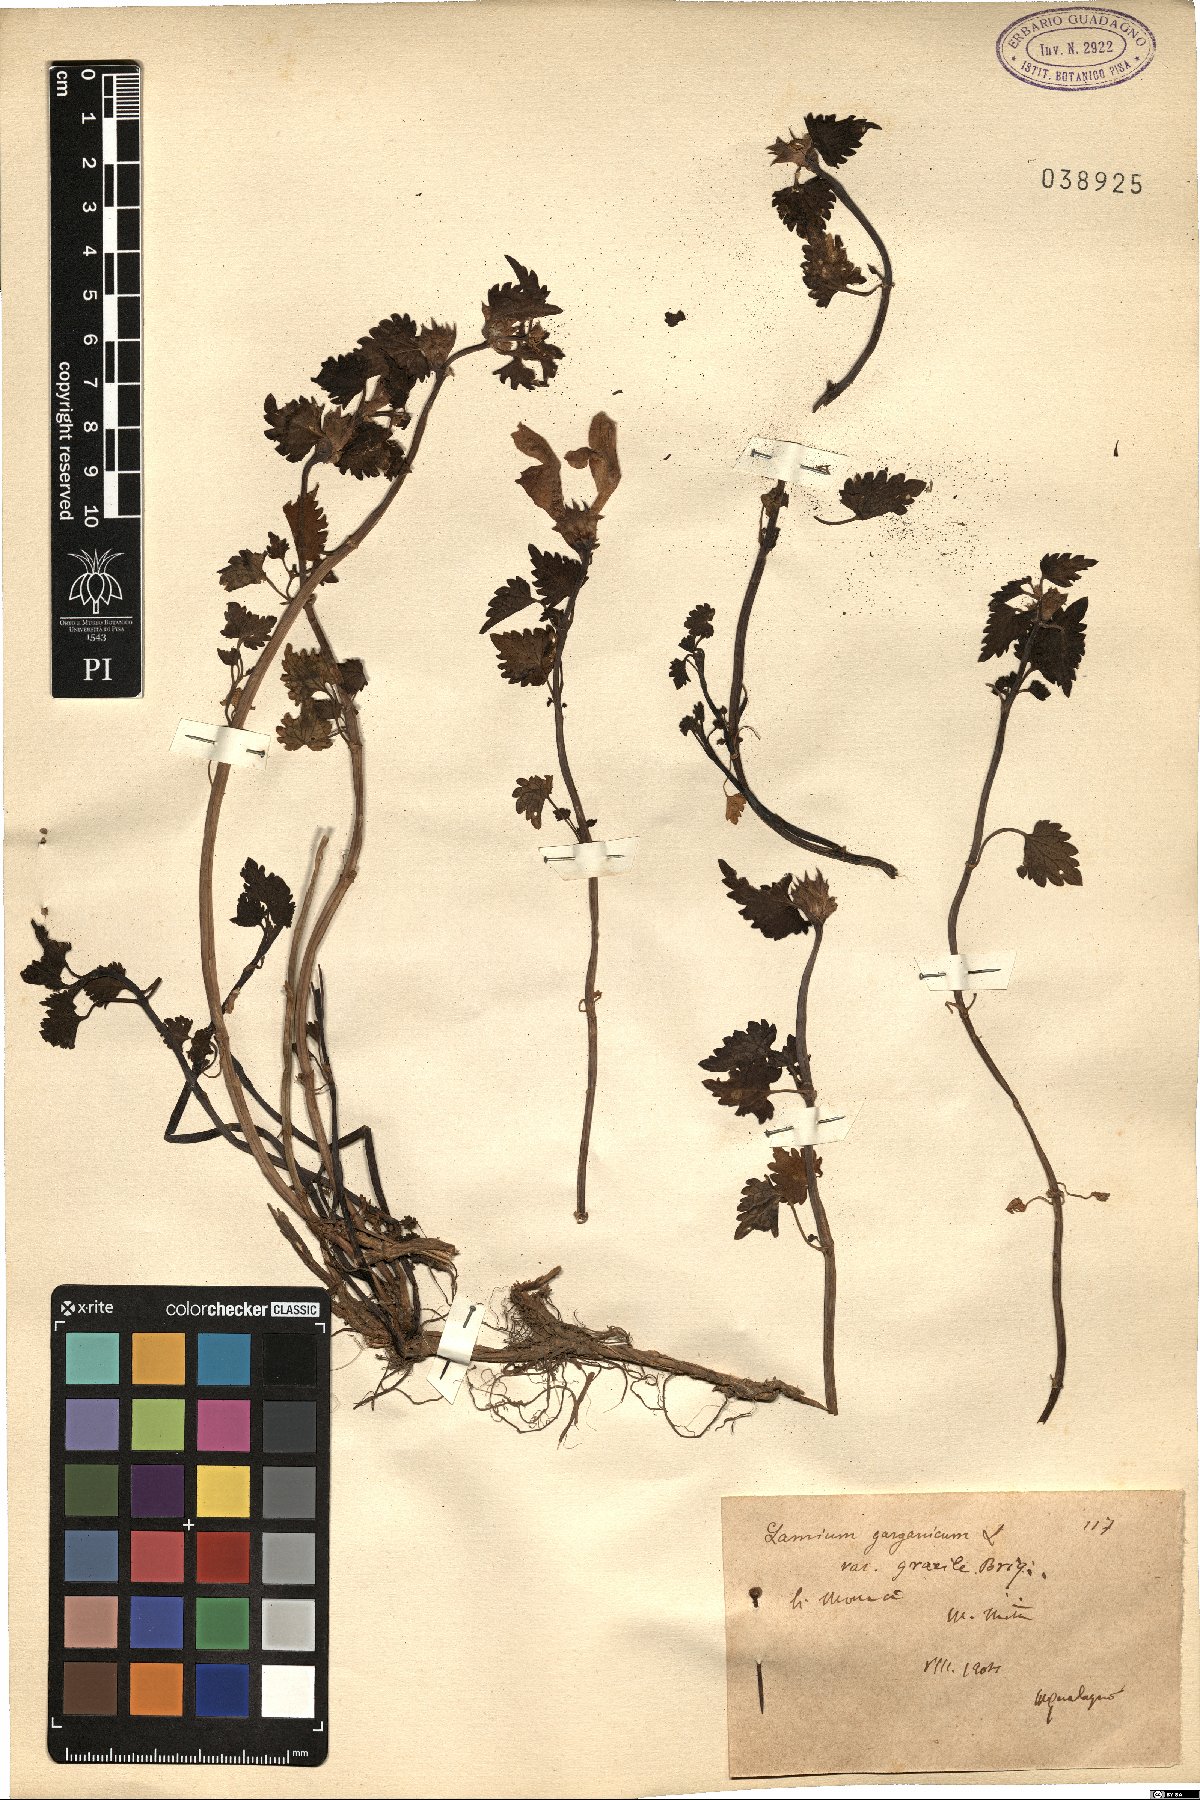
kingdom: Plantae
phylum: Tracheophyta
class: Magnoliopsida
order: Lamiales
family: Lamiaceae
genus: Lamium
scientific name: Lamium garganicum
